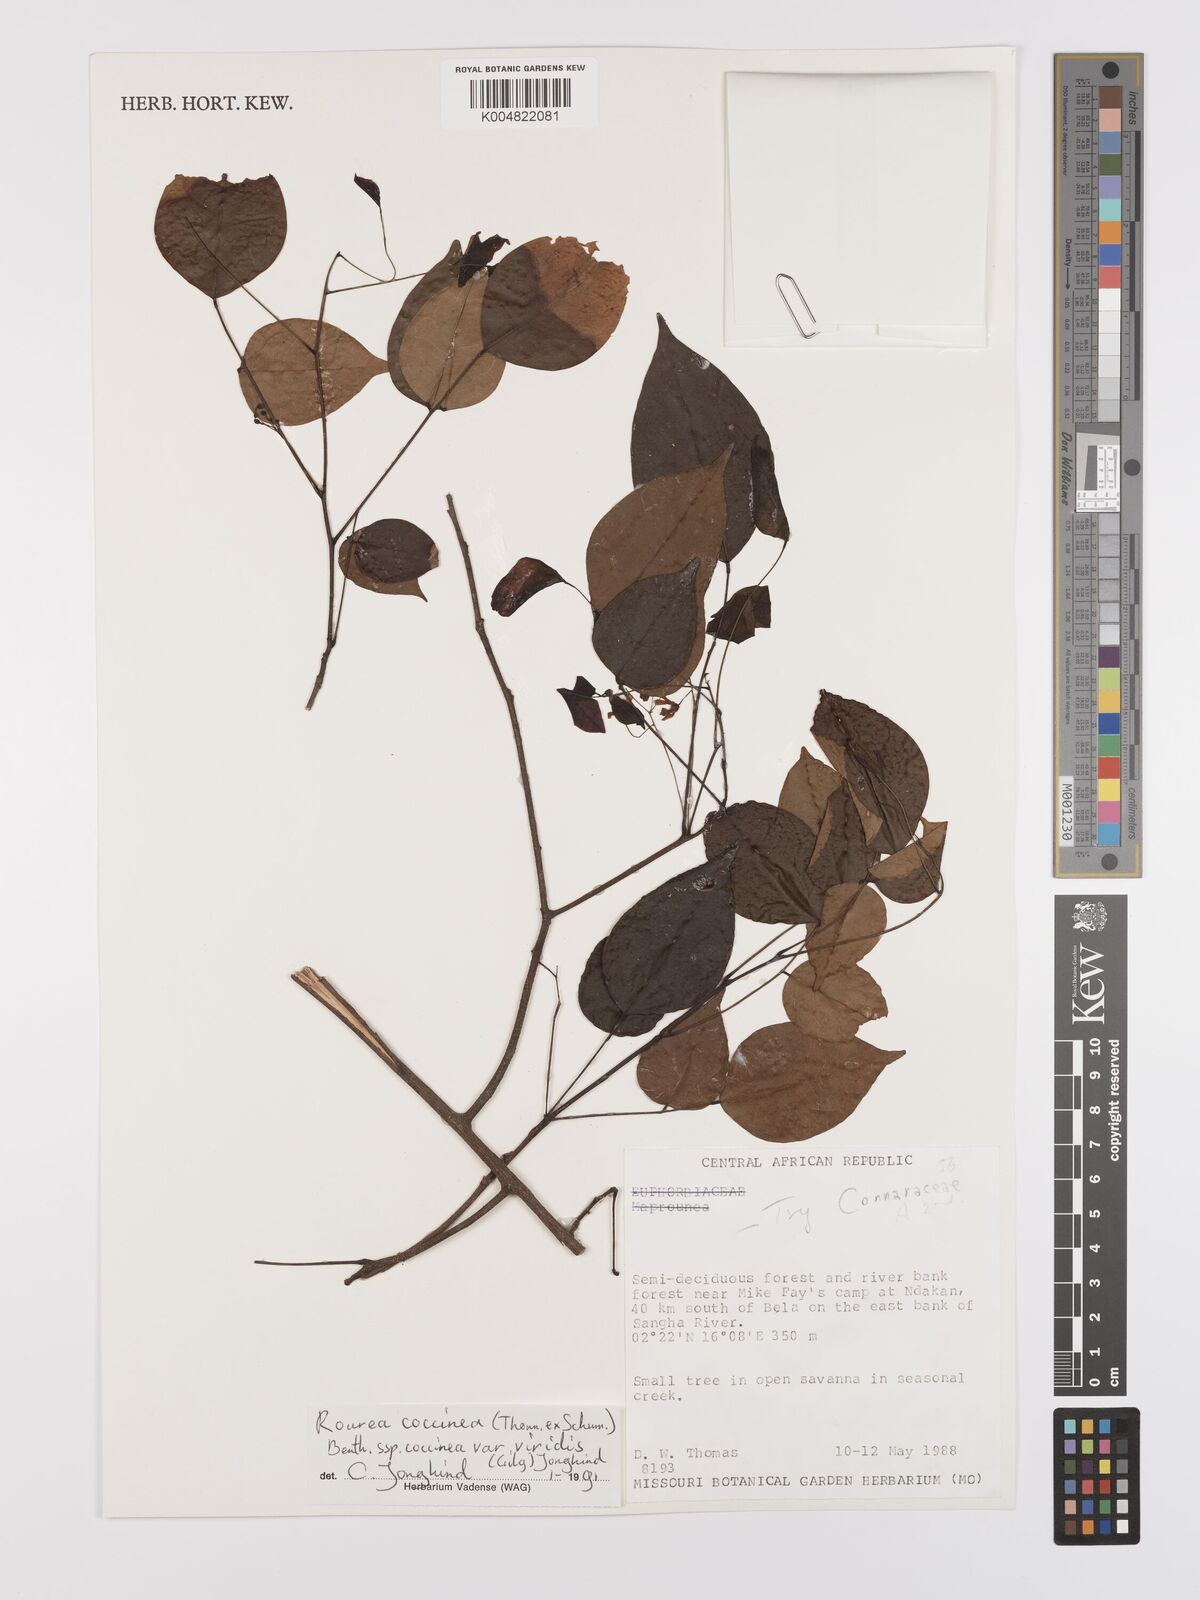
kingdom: Plantae
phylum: Tracheophyta
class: Magnoliopsida
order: Oxalidales
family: Connaraceae
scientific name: Connaraceae
